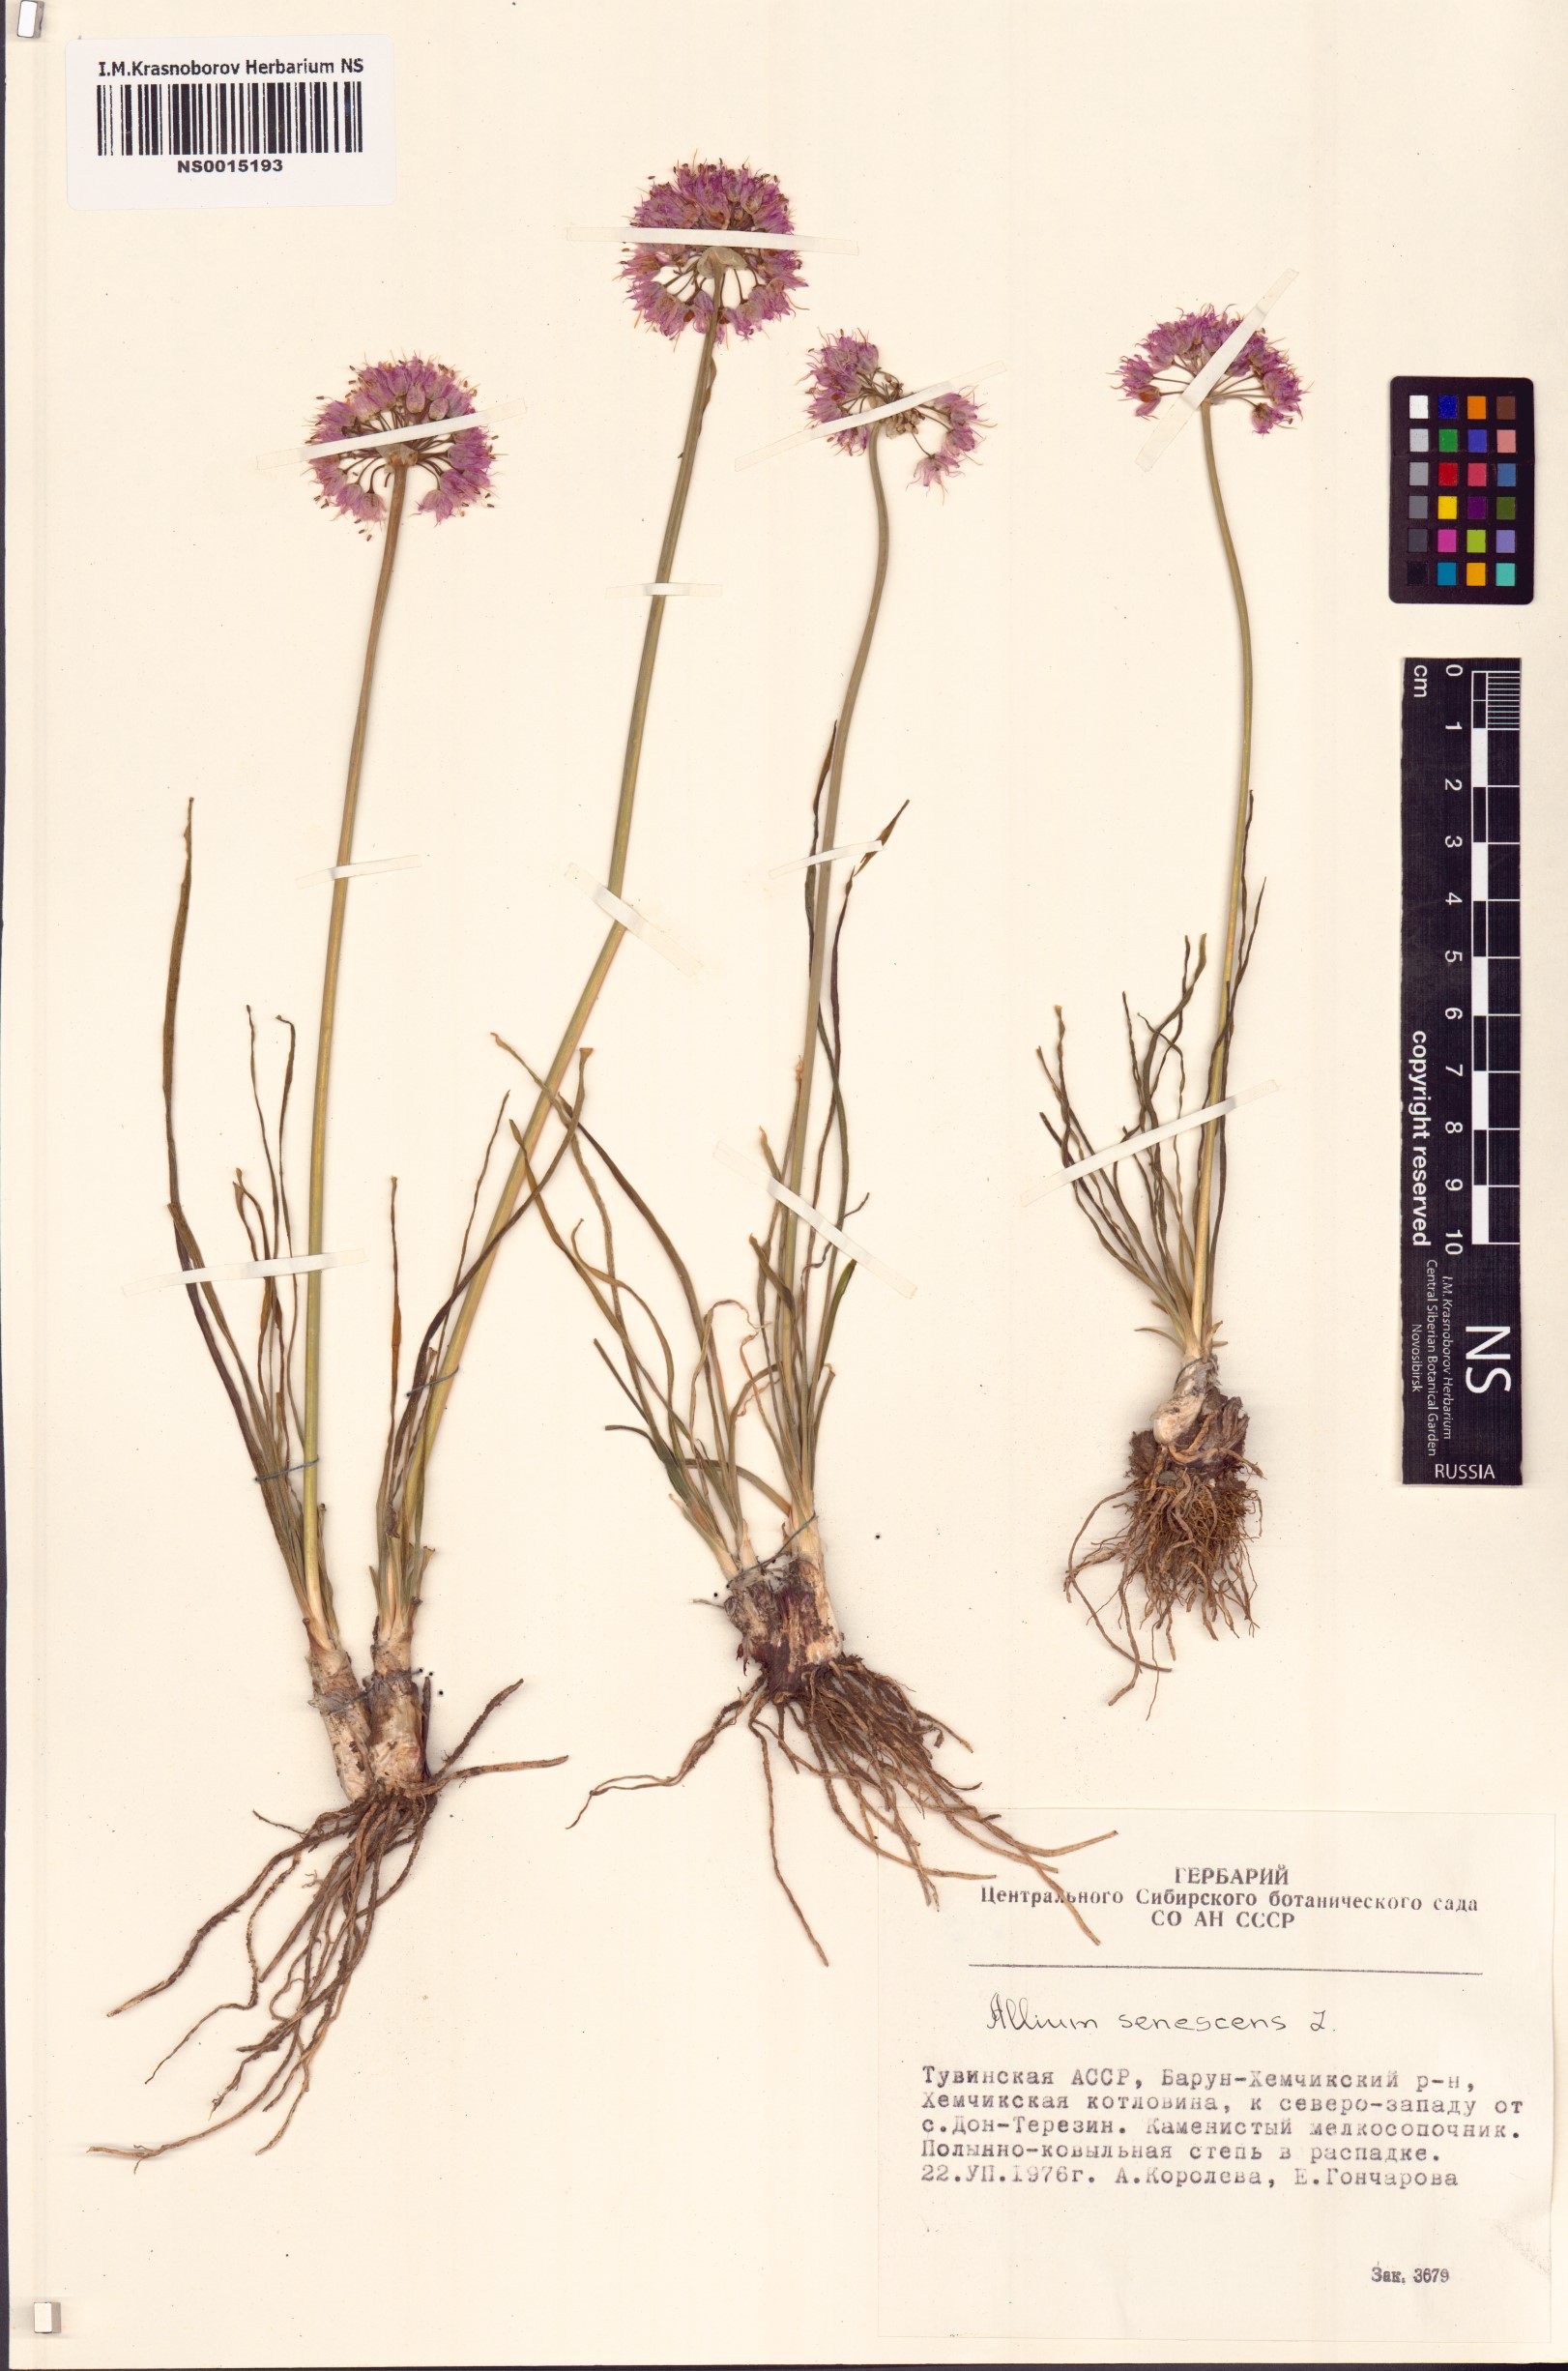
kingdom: Plantae
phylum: Tracheophyta
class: Liliopsida
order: Asparagales
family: Amaryllidaceae
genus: Allium
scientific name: Allium senescens
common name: German garlic
